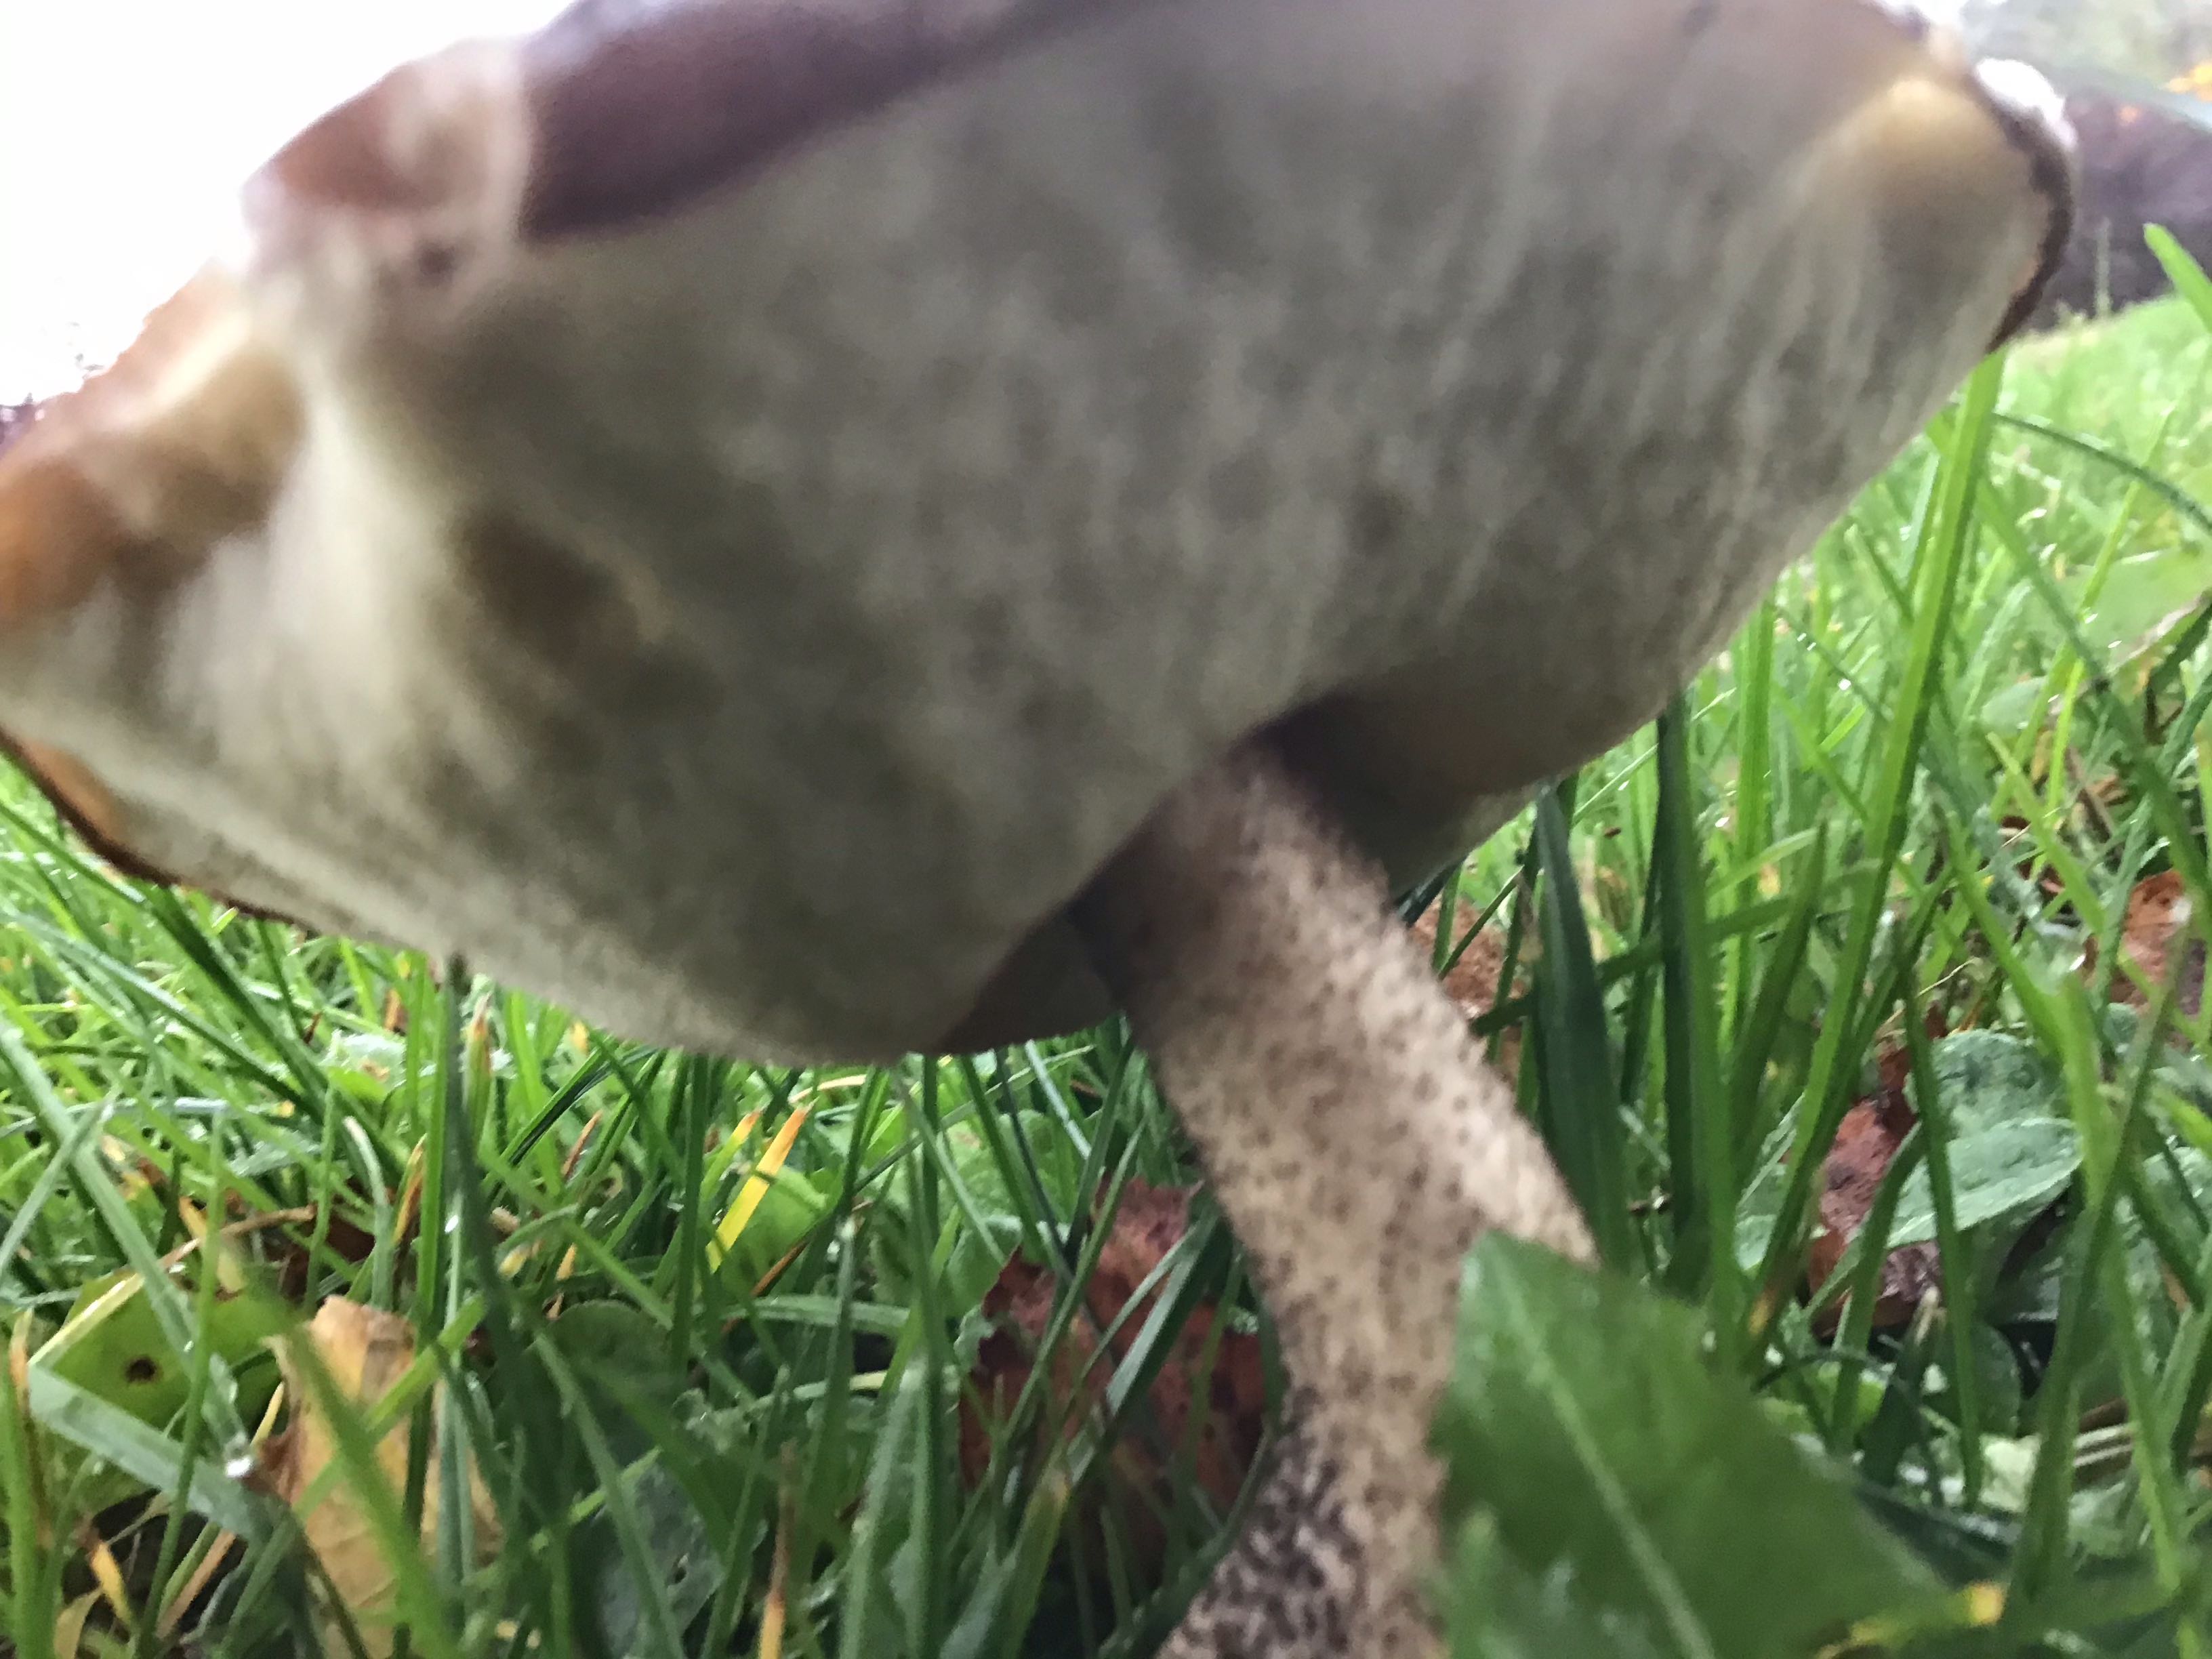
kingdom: Fungi
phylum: Basidiomycota
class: Agaricomycetes
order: Boletales
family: Boletaceae
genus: Leccinum
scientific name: Leccinum
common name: skælrørhat
